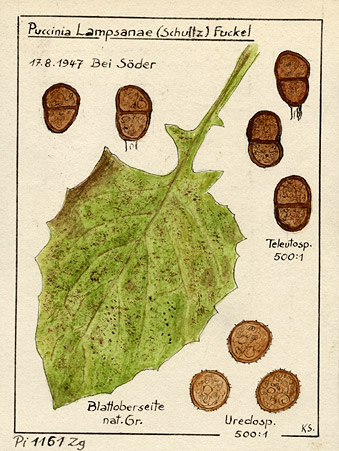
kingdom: Fungi
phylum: Basidiomycota
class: Pucciniomycetes
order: Pucciniales
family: Pucciniaceae
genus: Puccinia
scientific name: Puccinia lapsanae
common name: Nipplewort rust
